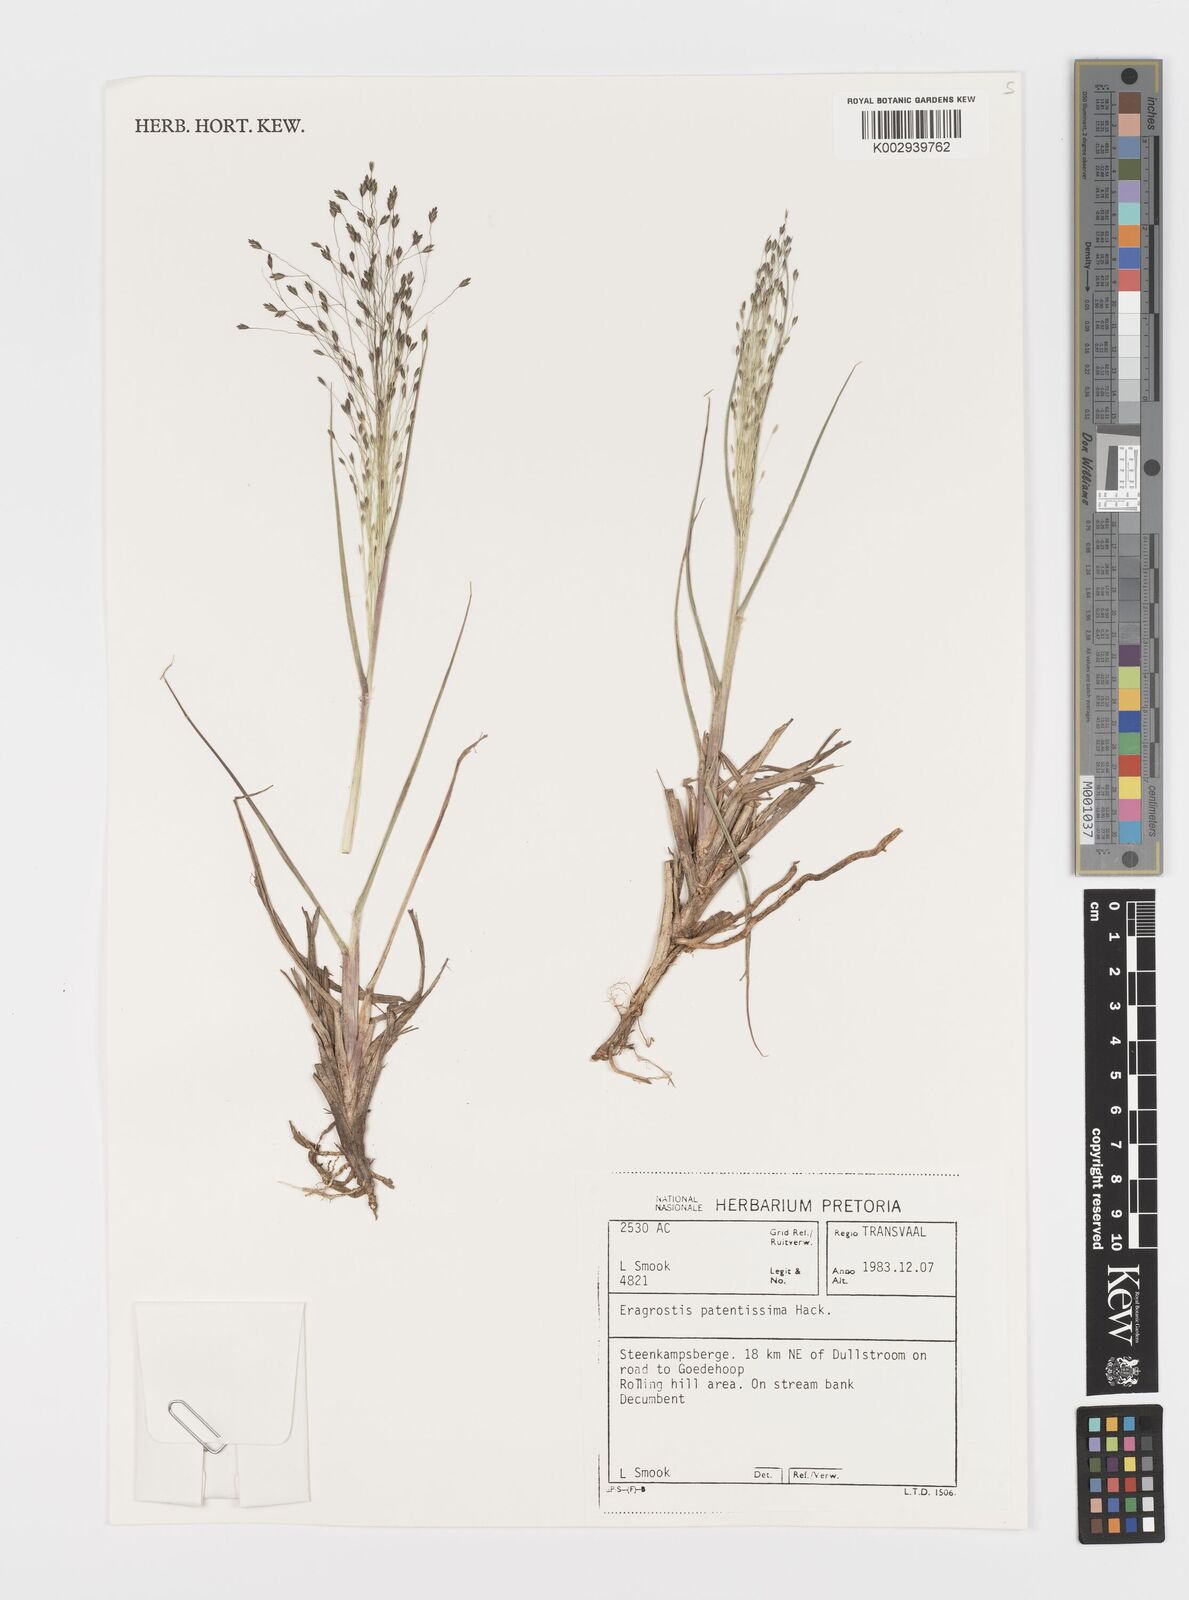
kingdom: Plantae
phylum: Tracheophyta
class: Liliopsida
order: Poales
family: Poaceae
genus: Eragrostis
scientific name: Eragrostis patentissima
